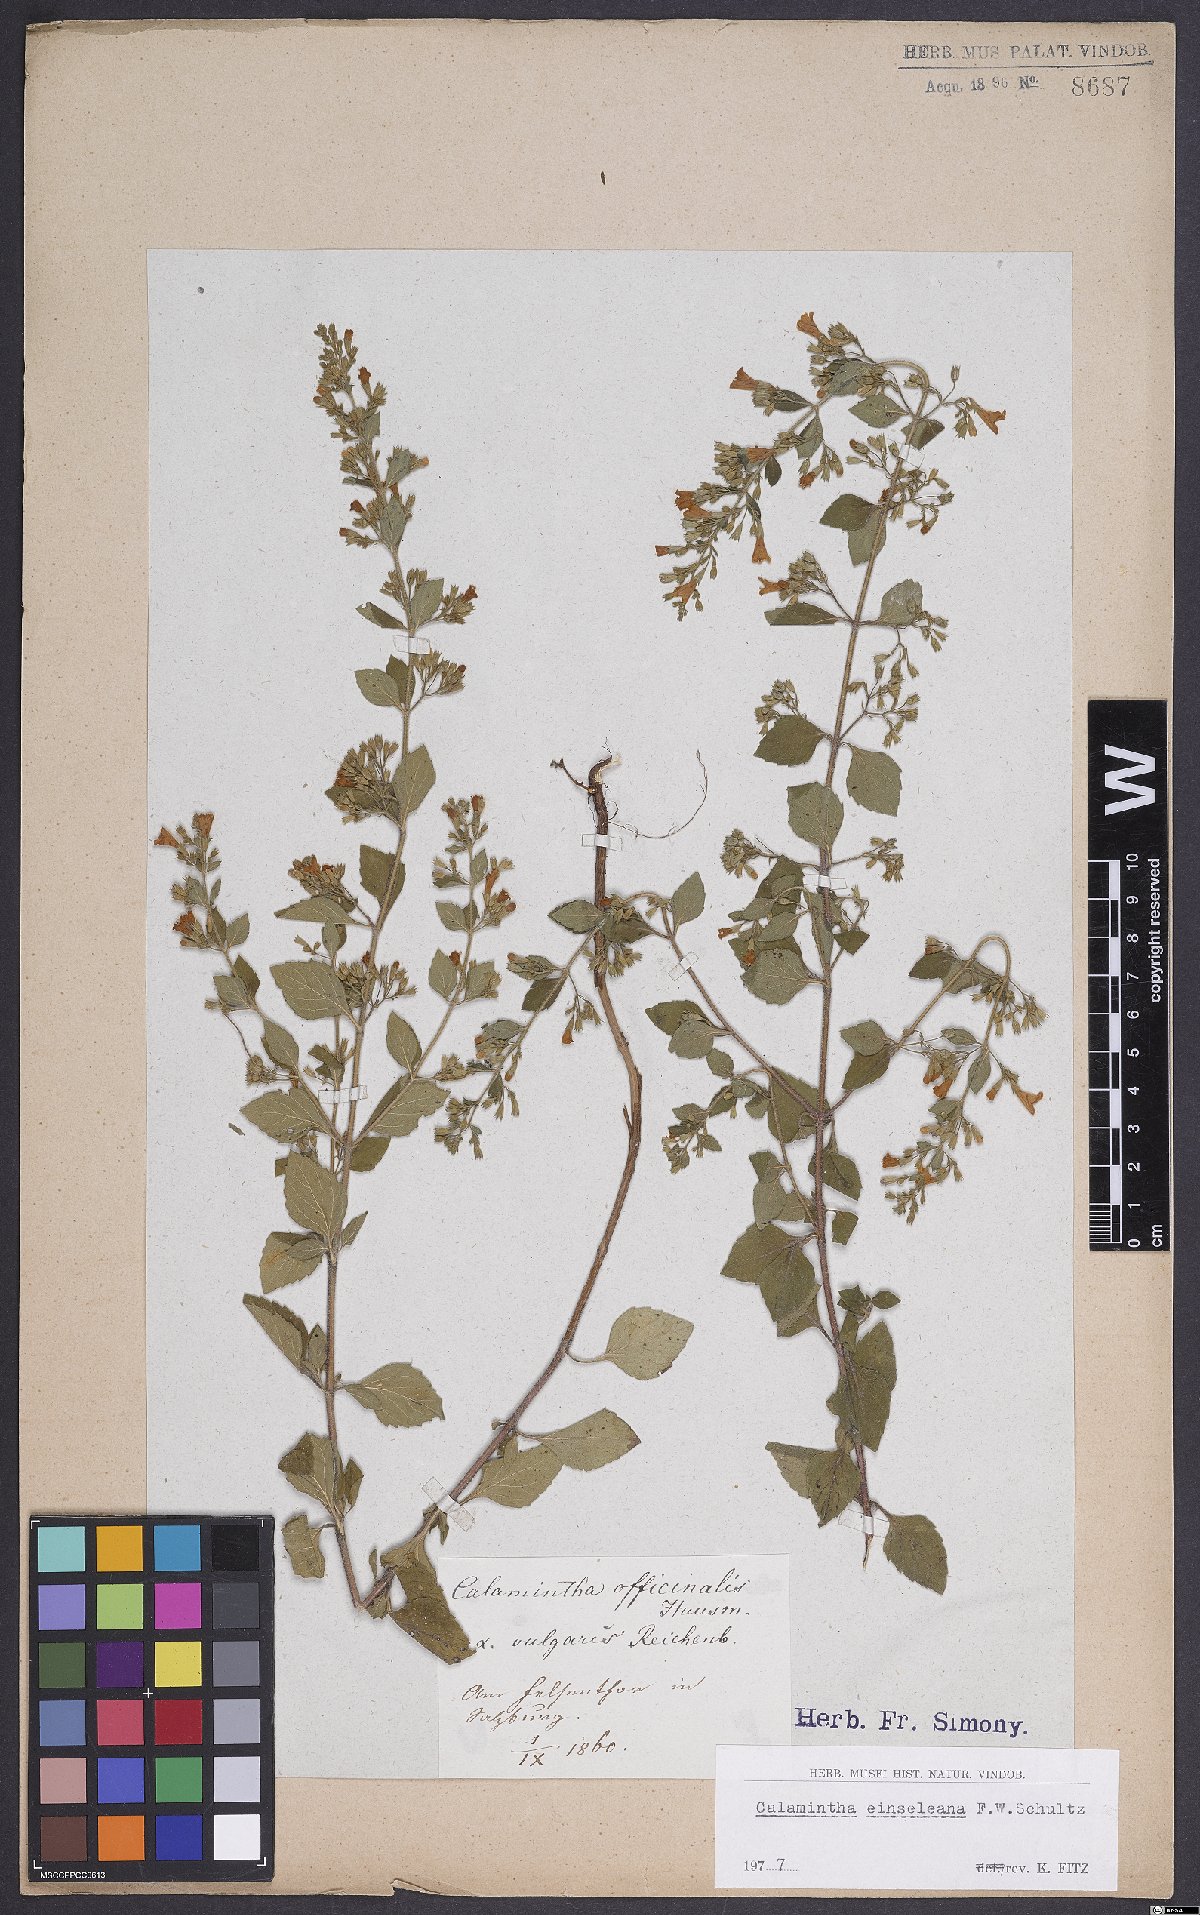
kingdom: Plantae
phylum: Tracheophyta
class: Magnoliopsida
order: Lamiales
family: Lamiaceae
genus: Clinopodium
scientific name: Clinopodium nepeta
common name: Lesser calamint
